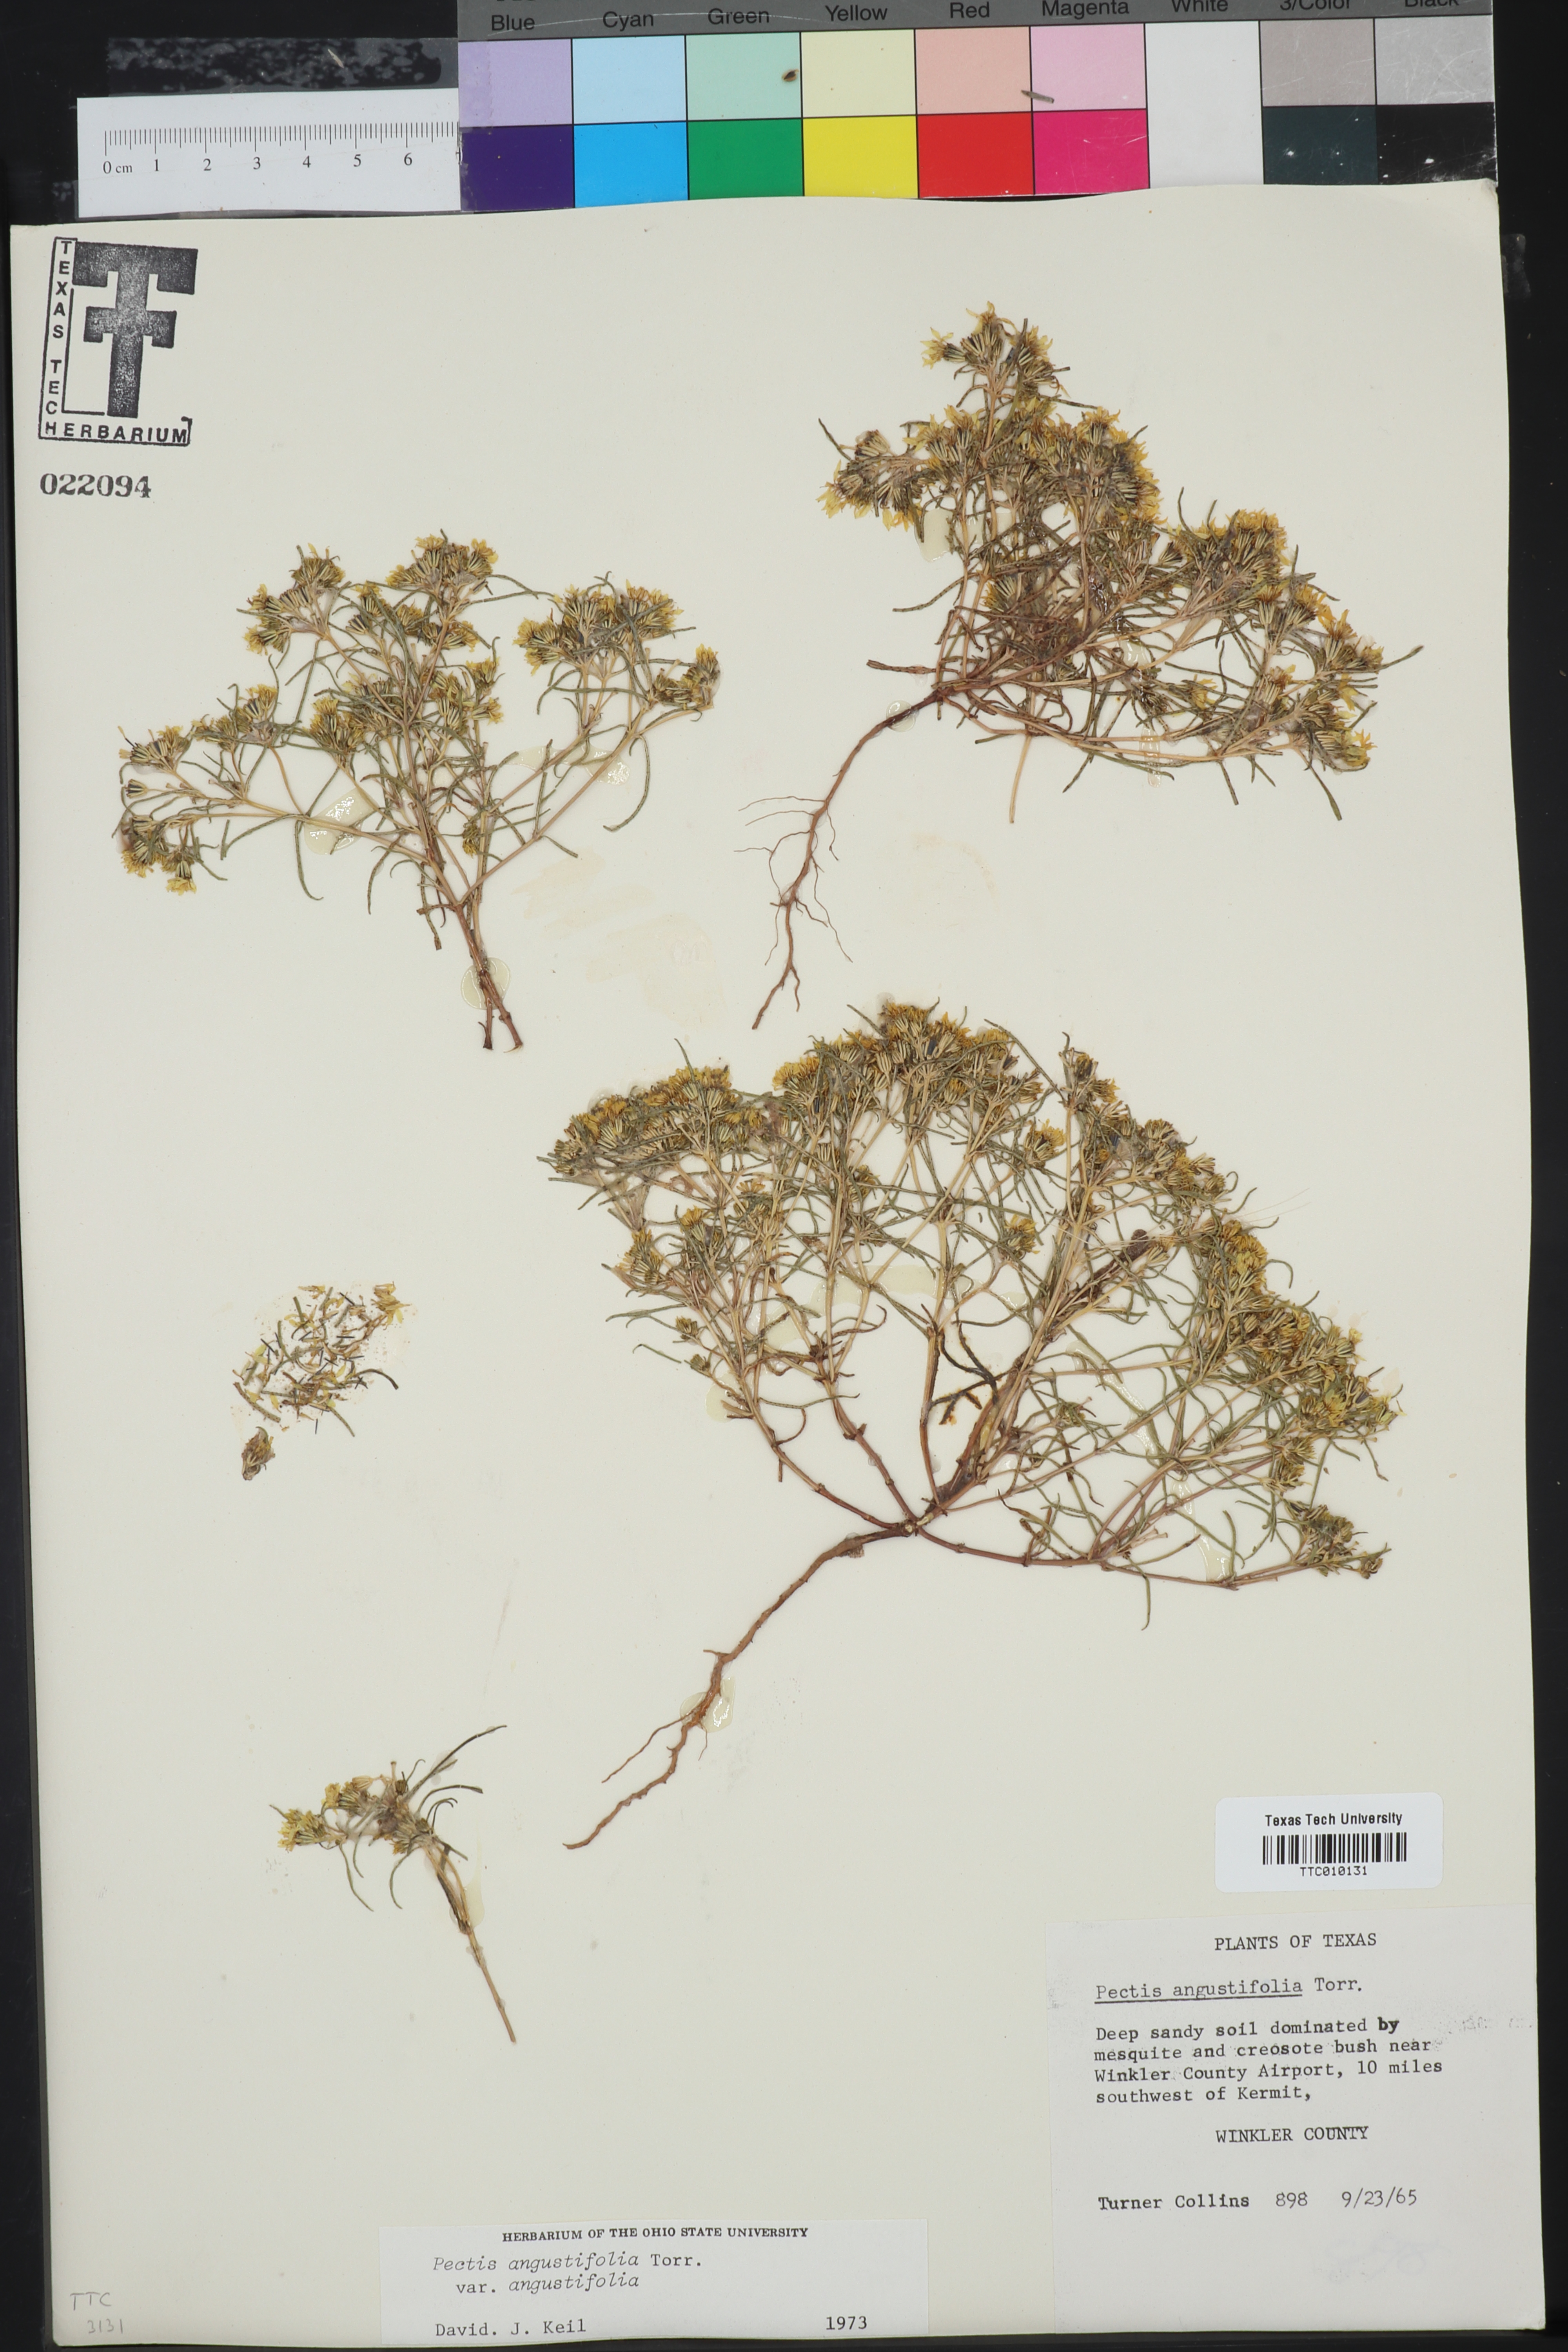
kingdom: Plantae
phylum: Tracheophyta
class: Magnoliopsida
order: Asterales
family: Asteraceae
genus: Pectis
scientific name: Pectis angustifolia
